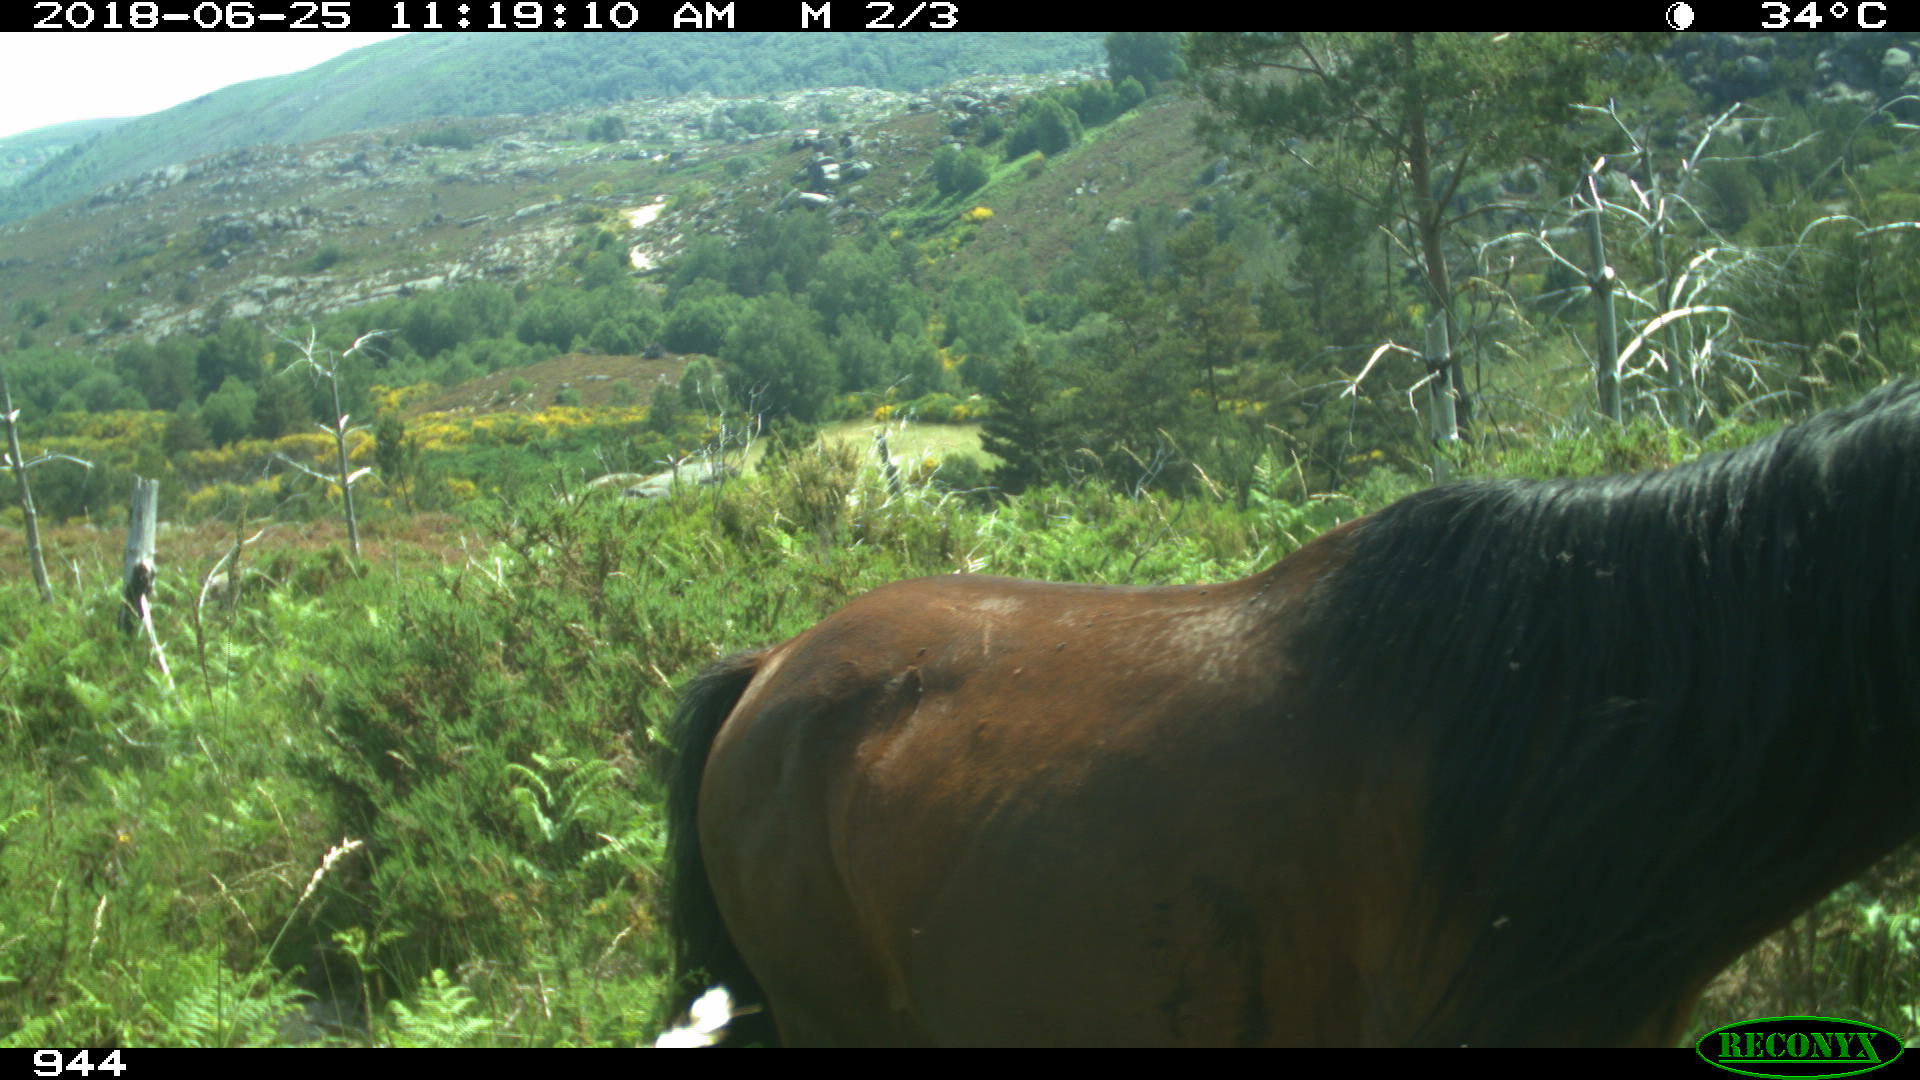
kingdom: Animalia
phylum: Chordata
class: Mammalia
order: Perissodactyla
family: Equidae
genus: Equus
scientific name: Equus caballus
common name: Horse
